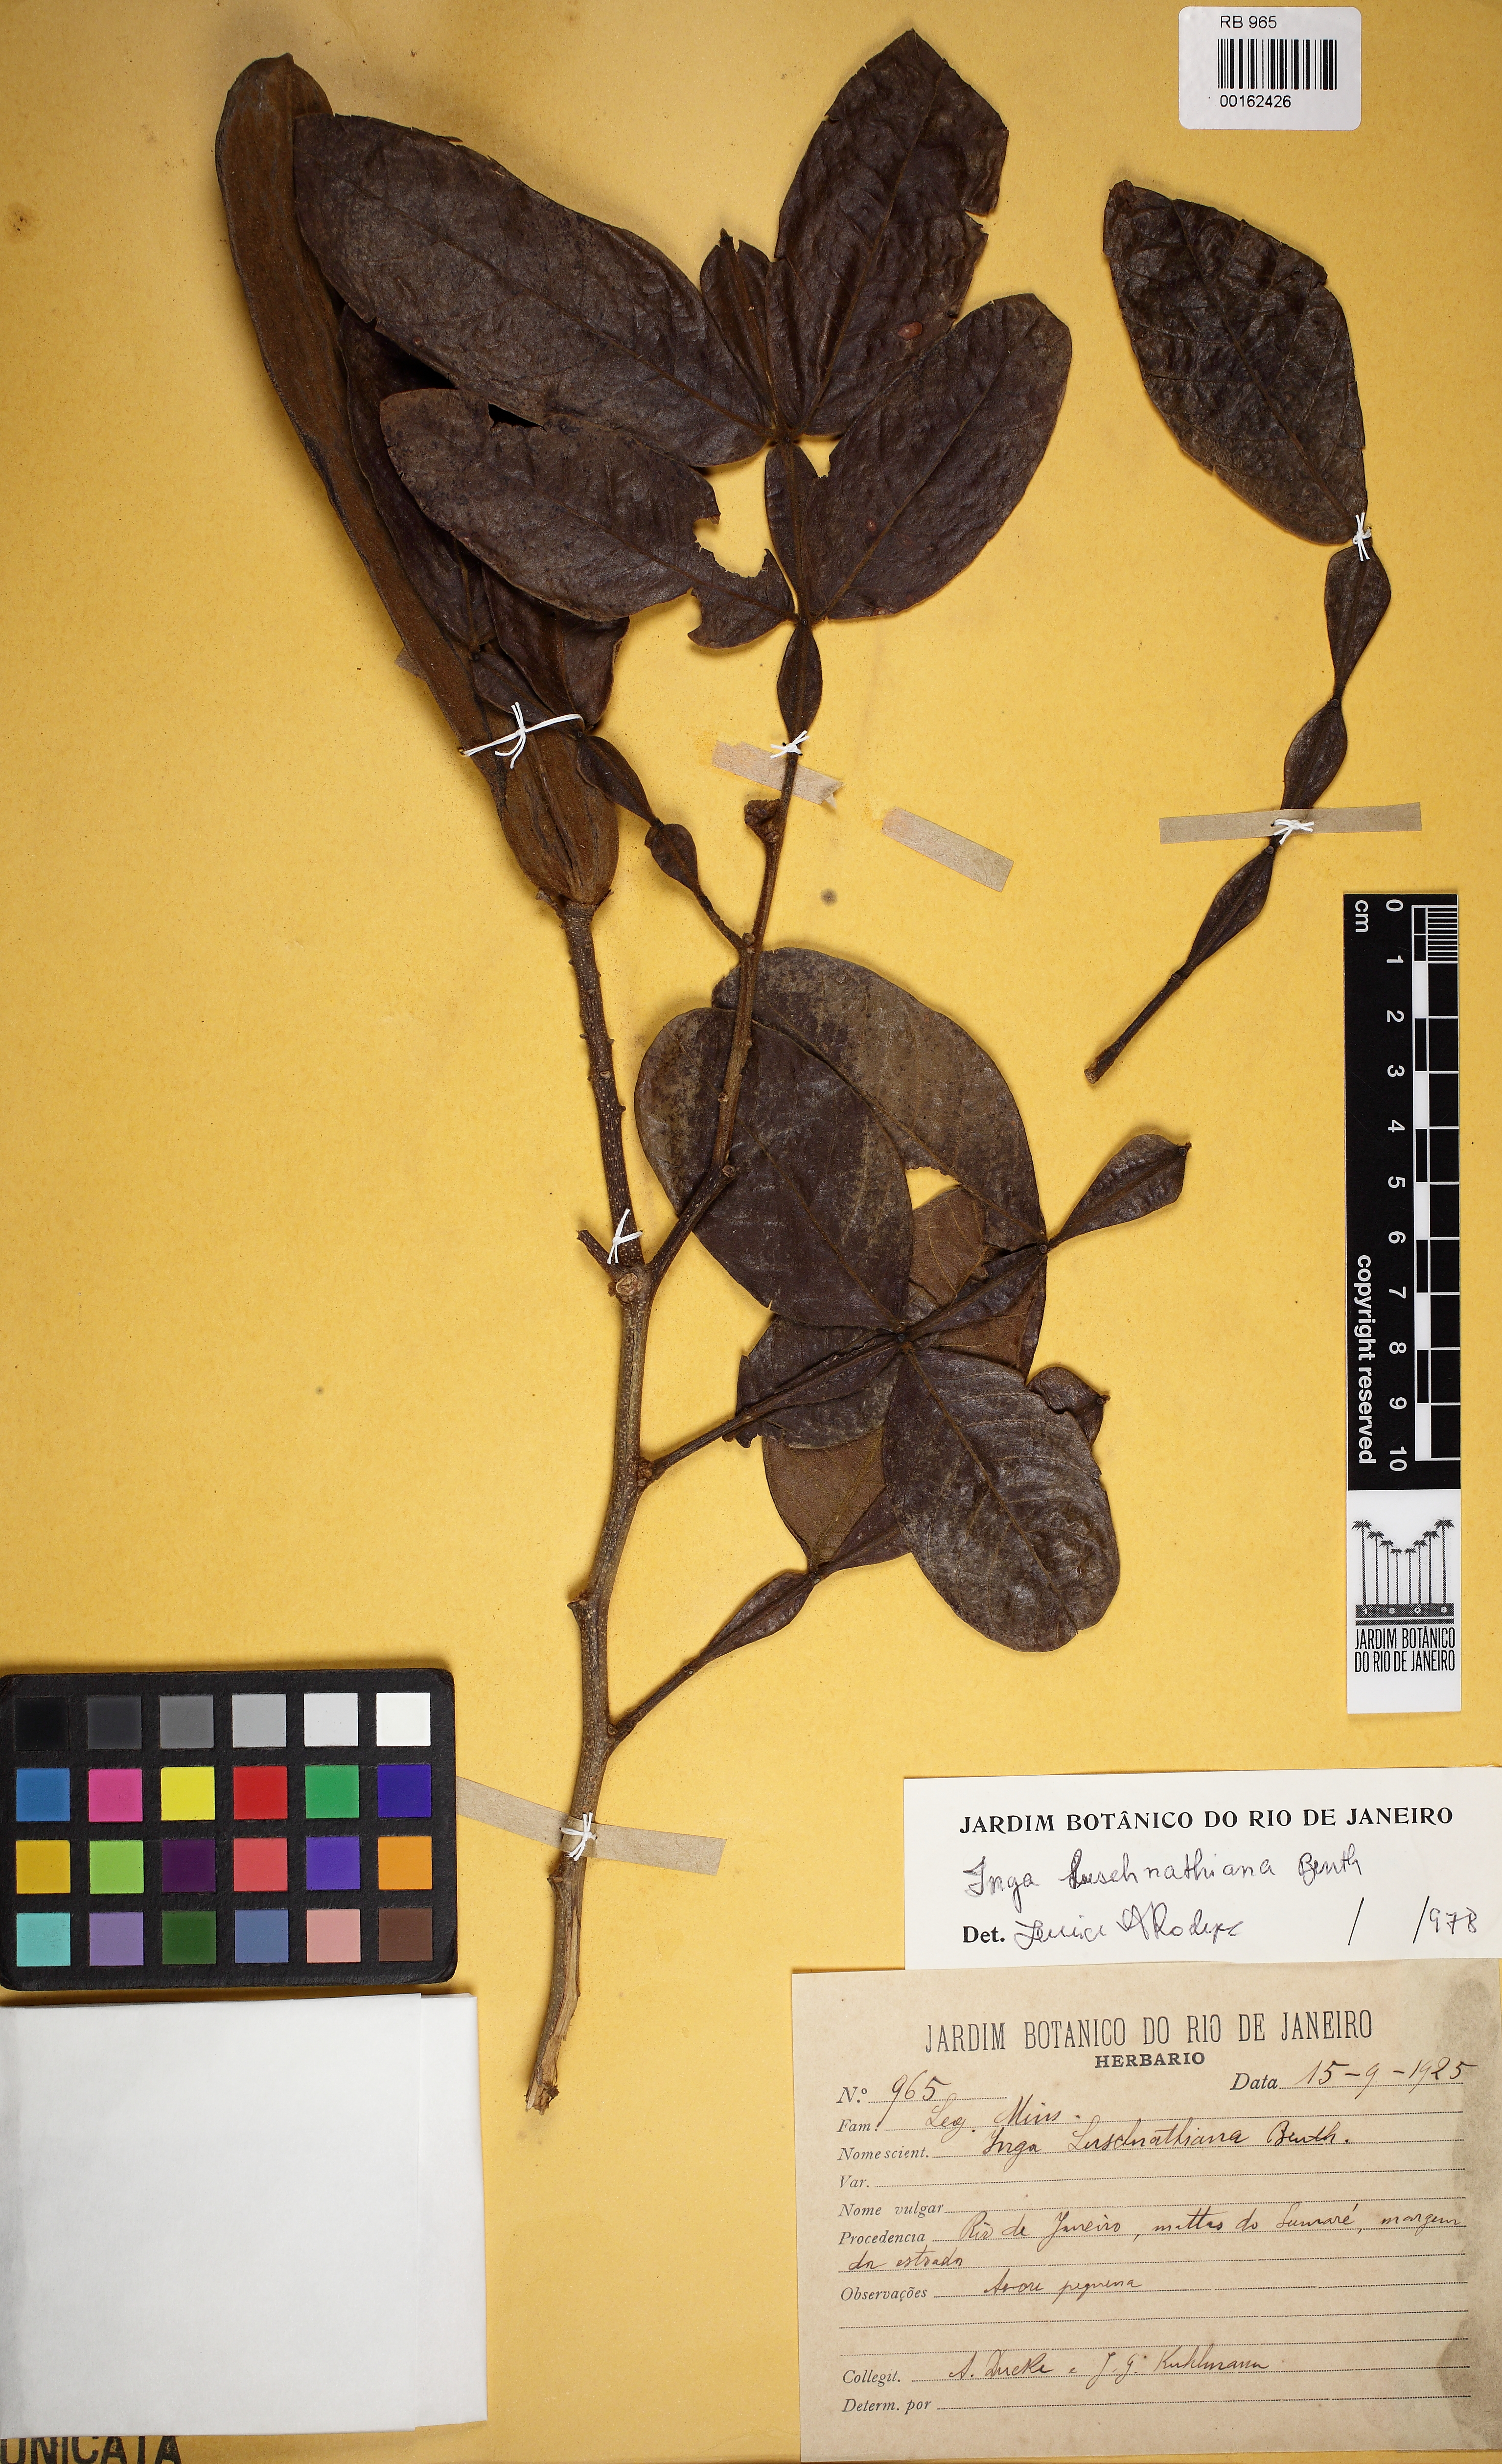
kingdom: Plantae
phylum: Tracheophyta
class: Magnoliopsida
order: Fabales
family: Fabaceae
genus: Inga
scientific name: Inga subnuda
